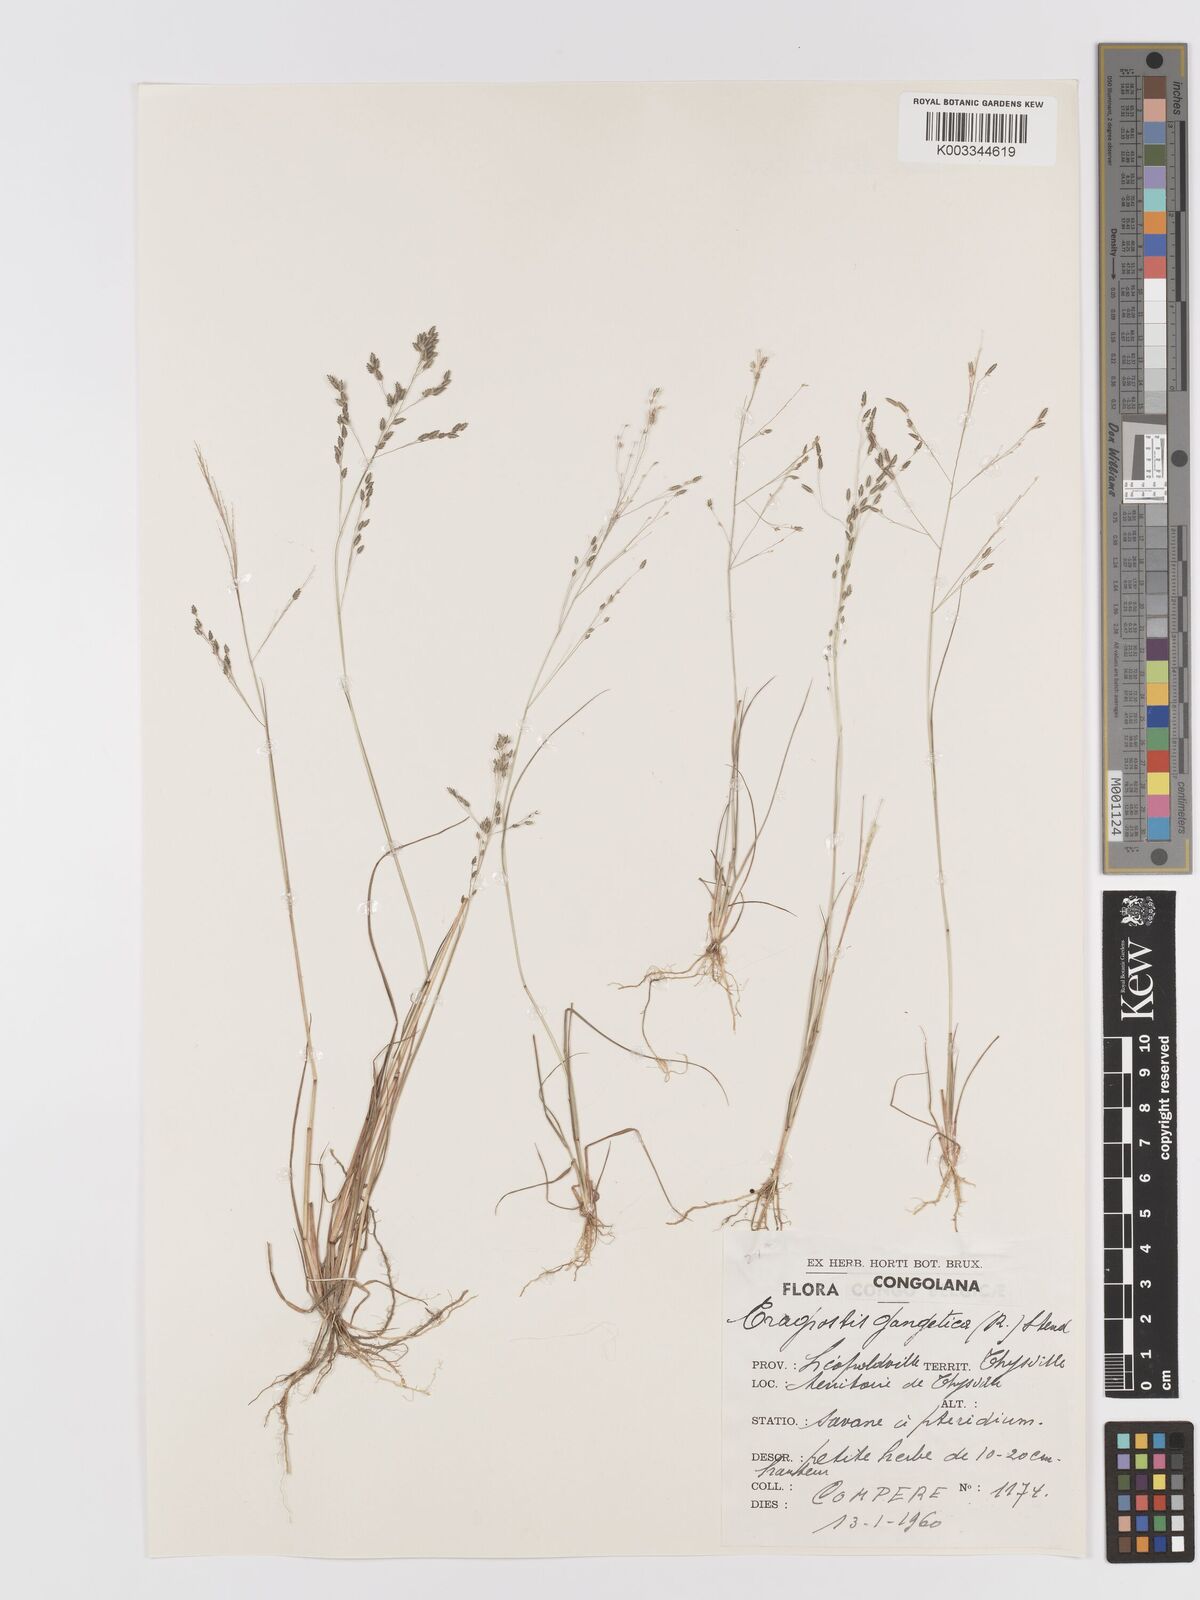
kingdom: Plantae
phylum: Tracheophyta
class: Liliopsida
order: Poales
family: Poaceae
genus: Eragrostis
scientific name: Eragrostis gangetica
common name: Slimflower lovegrass
